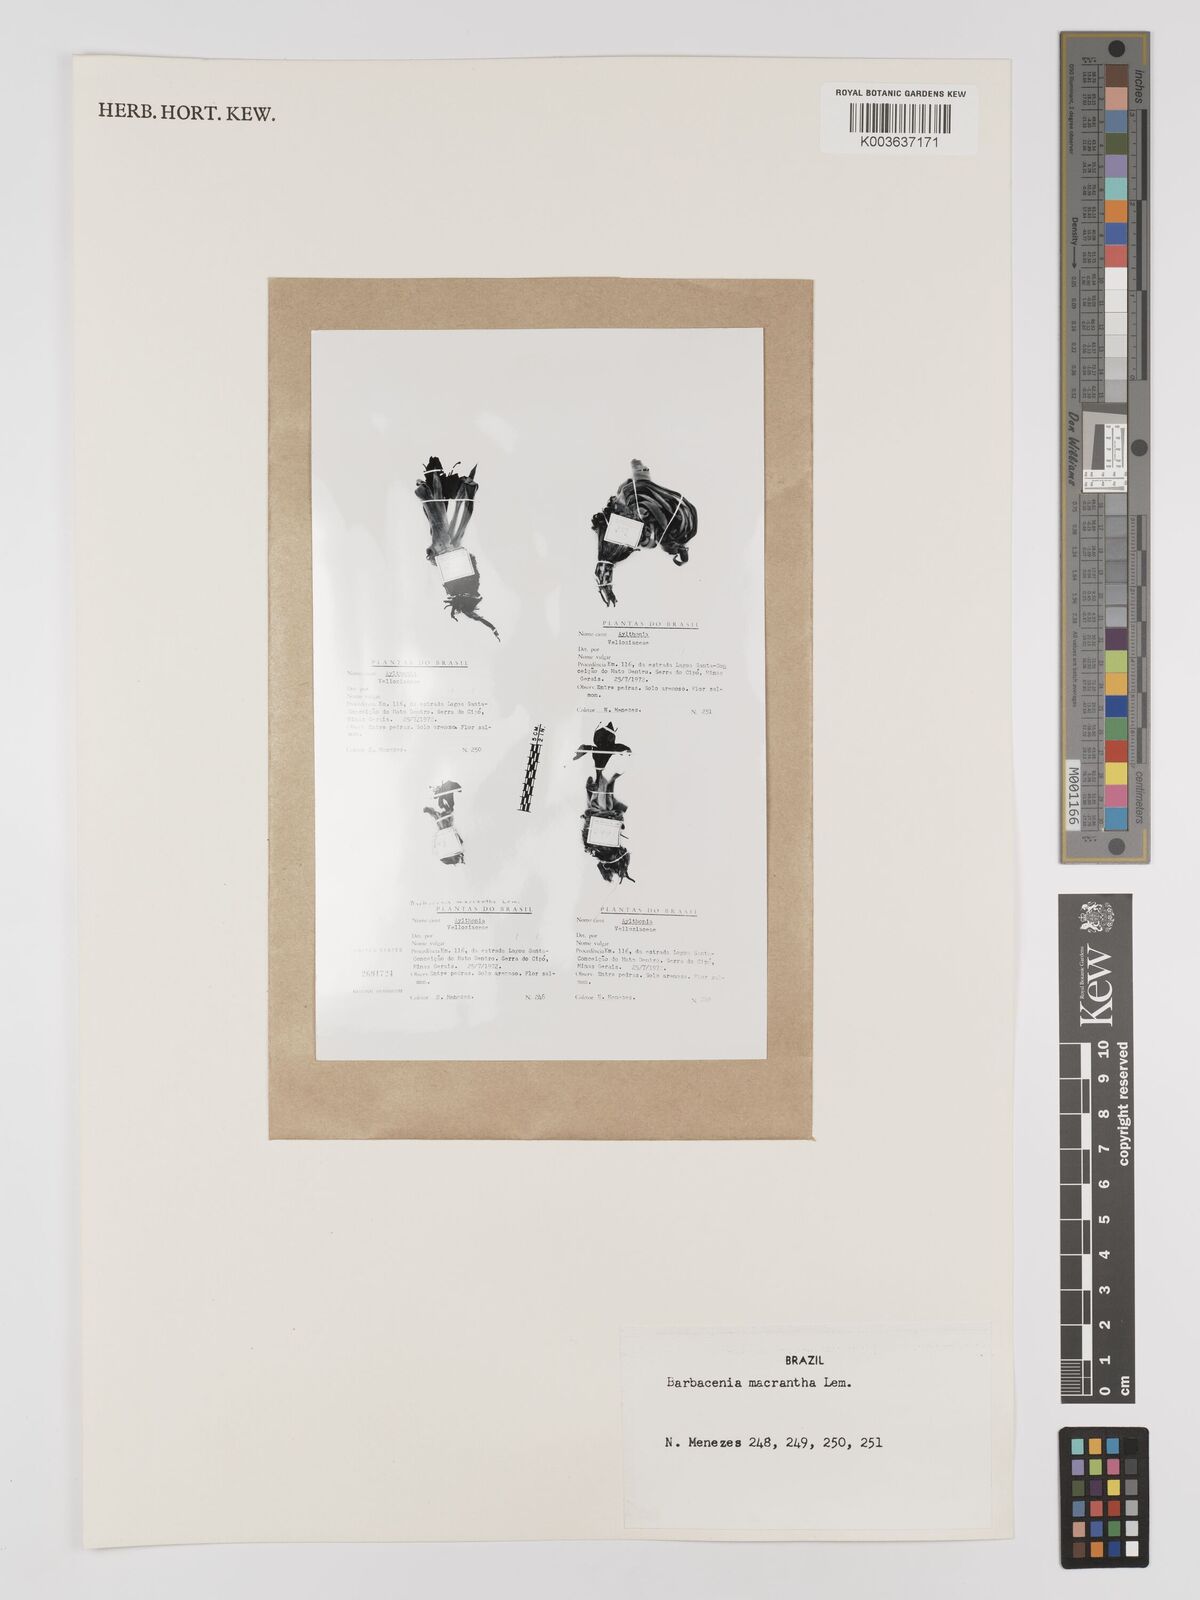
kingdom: Plantae
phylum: Tracheophyta
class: Liliopsida
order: Pandanales
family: Velloziaceae
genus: Barbacenia
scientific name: Barbacenia macrantha
